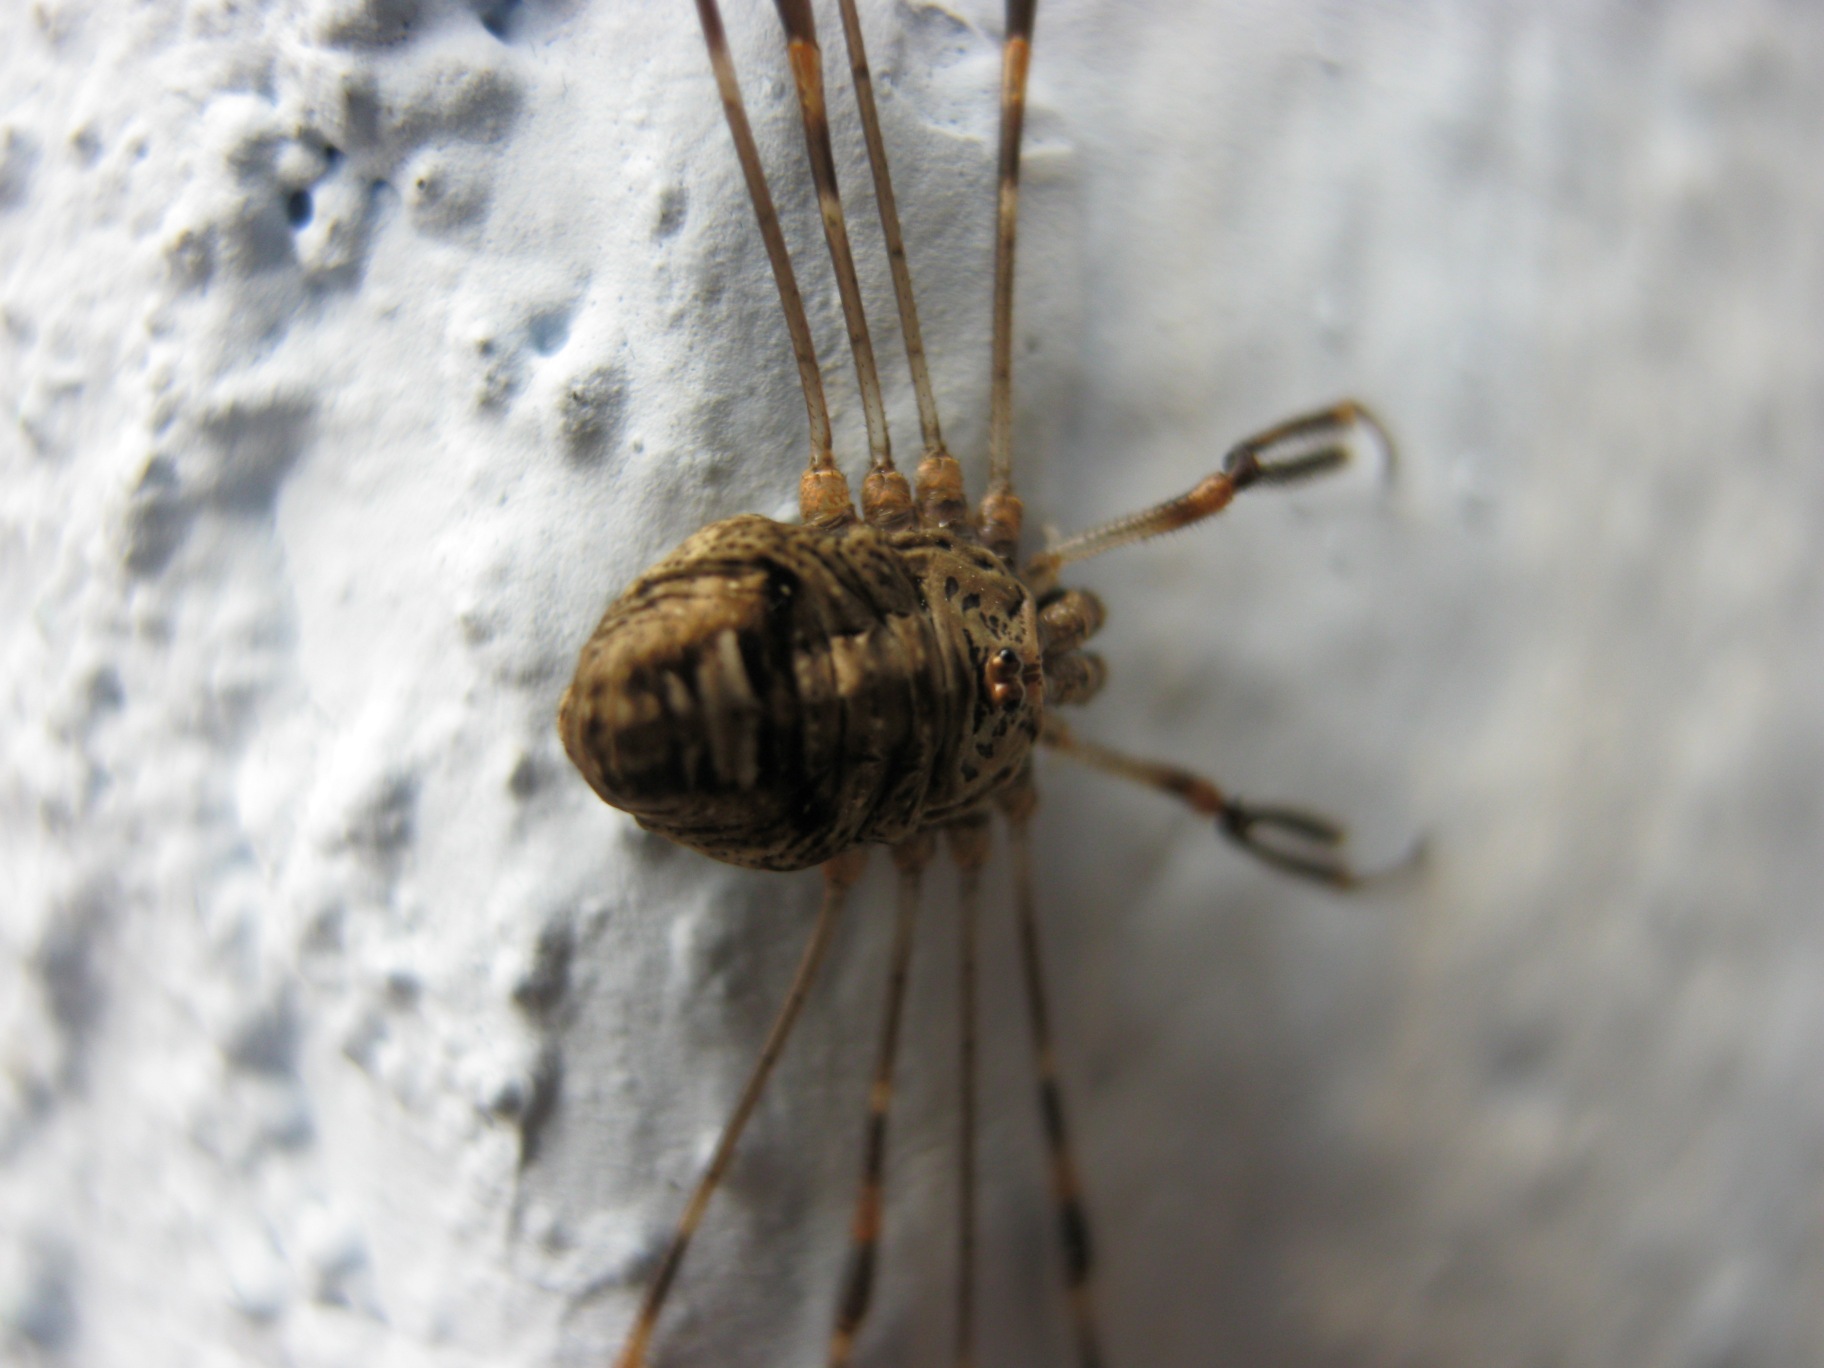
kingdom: Animalia
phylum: Arthropoda
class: Arachnida
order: Opiliones
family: Phalangiidae
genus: Dicranopalpus
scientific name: Dicranopalpus ramosus
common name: Gaffelmejer
